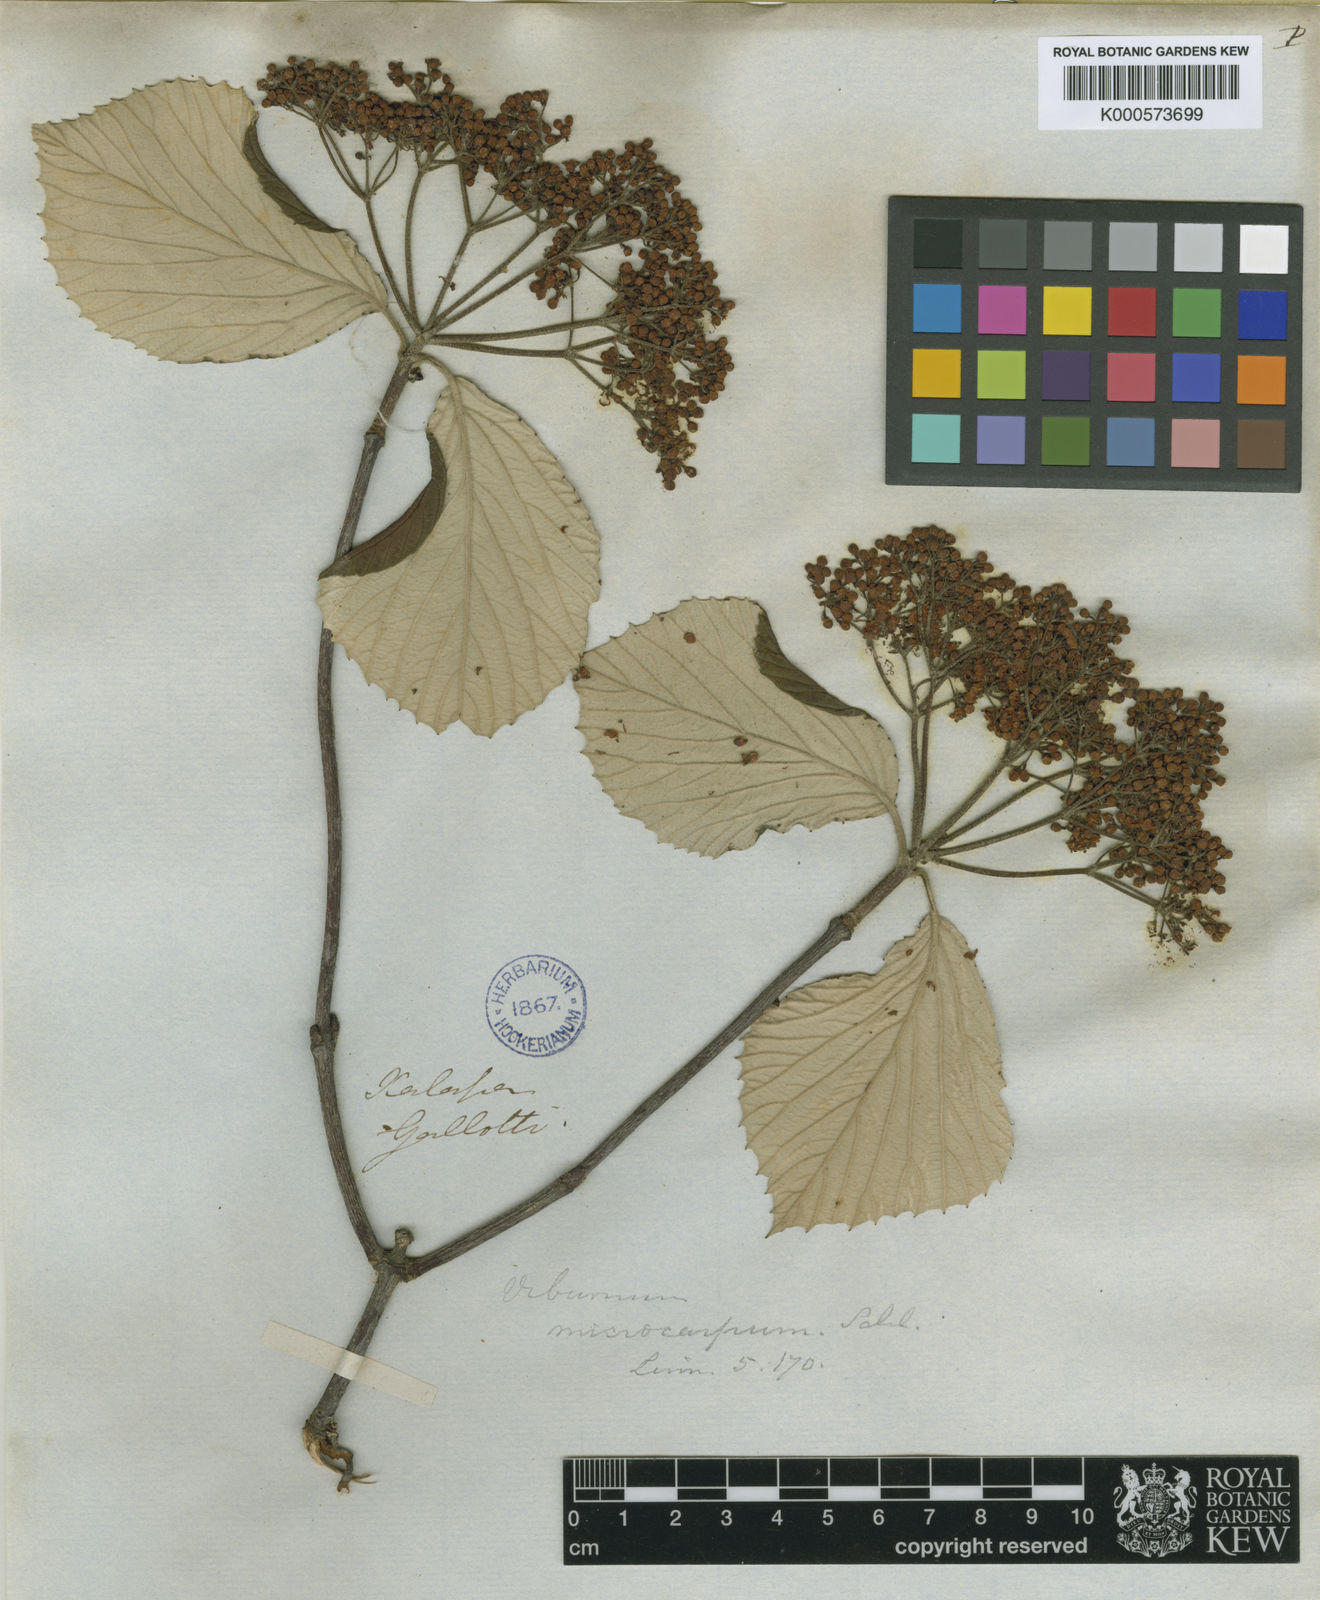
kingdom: Plantae
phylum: Tracheophyta
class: Magnoliopsida
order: Dipsacales
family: Viburnaceae
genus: Viburnum
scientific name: Viburnum microcarpum
